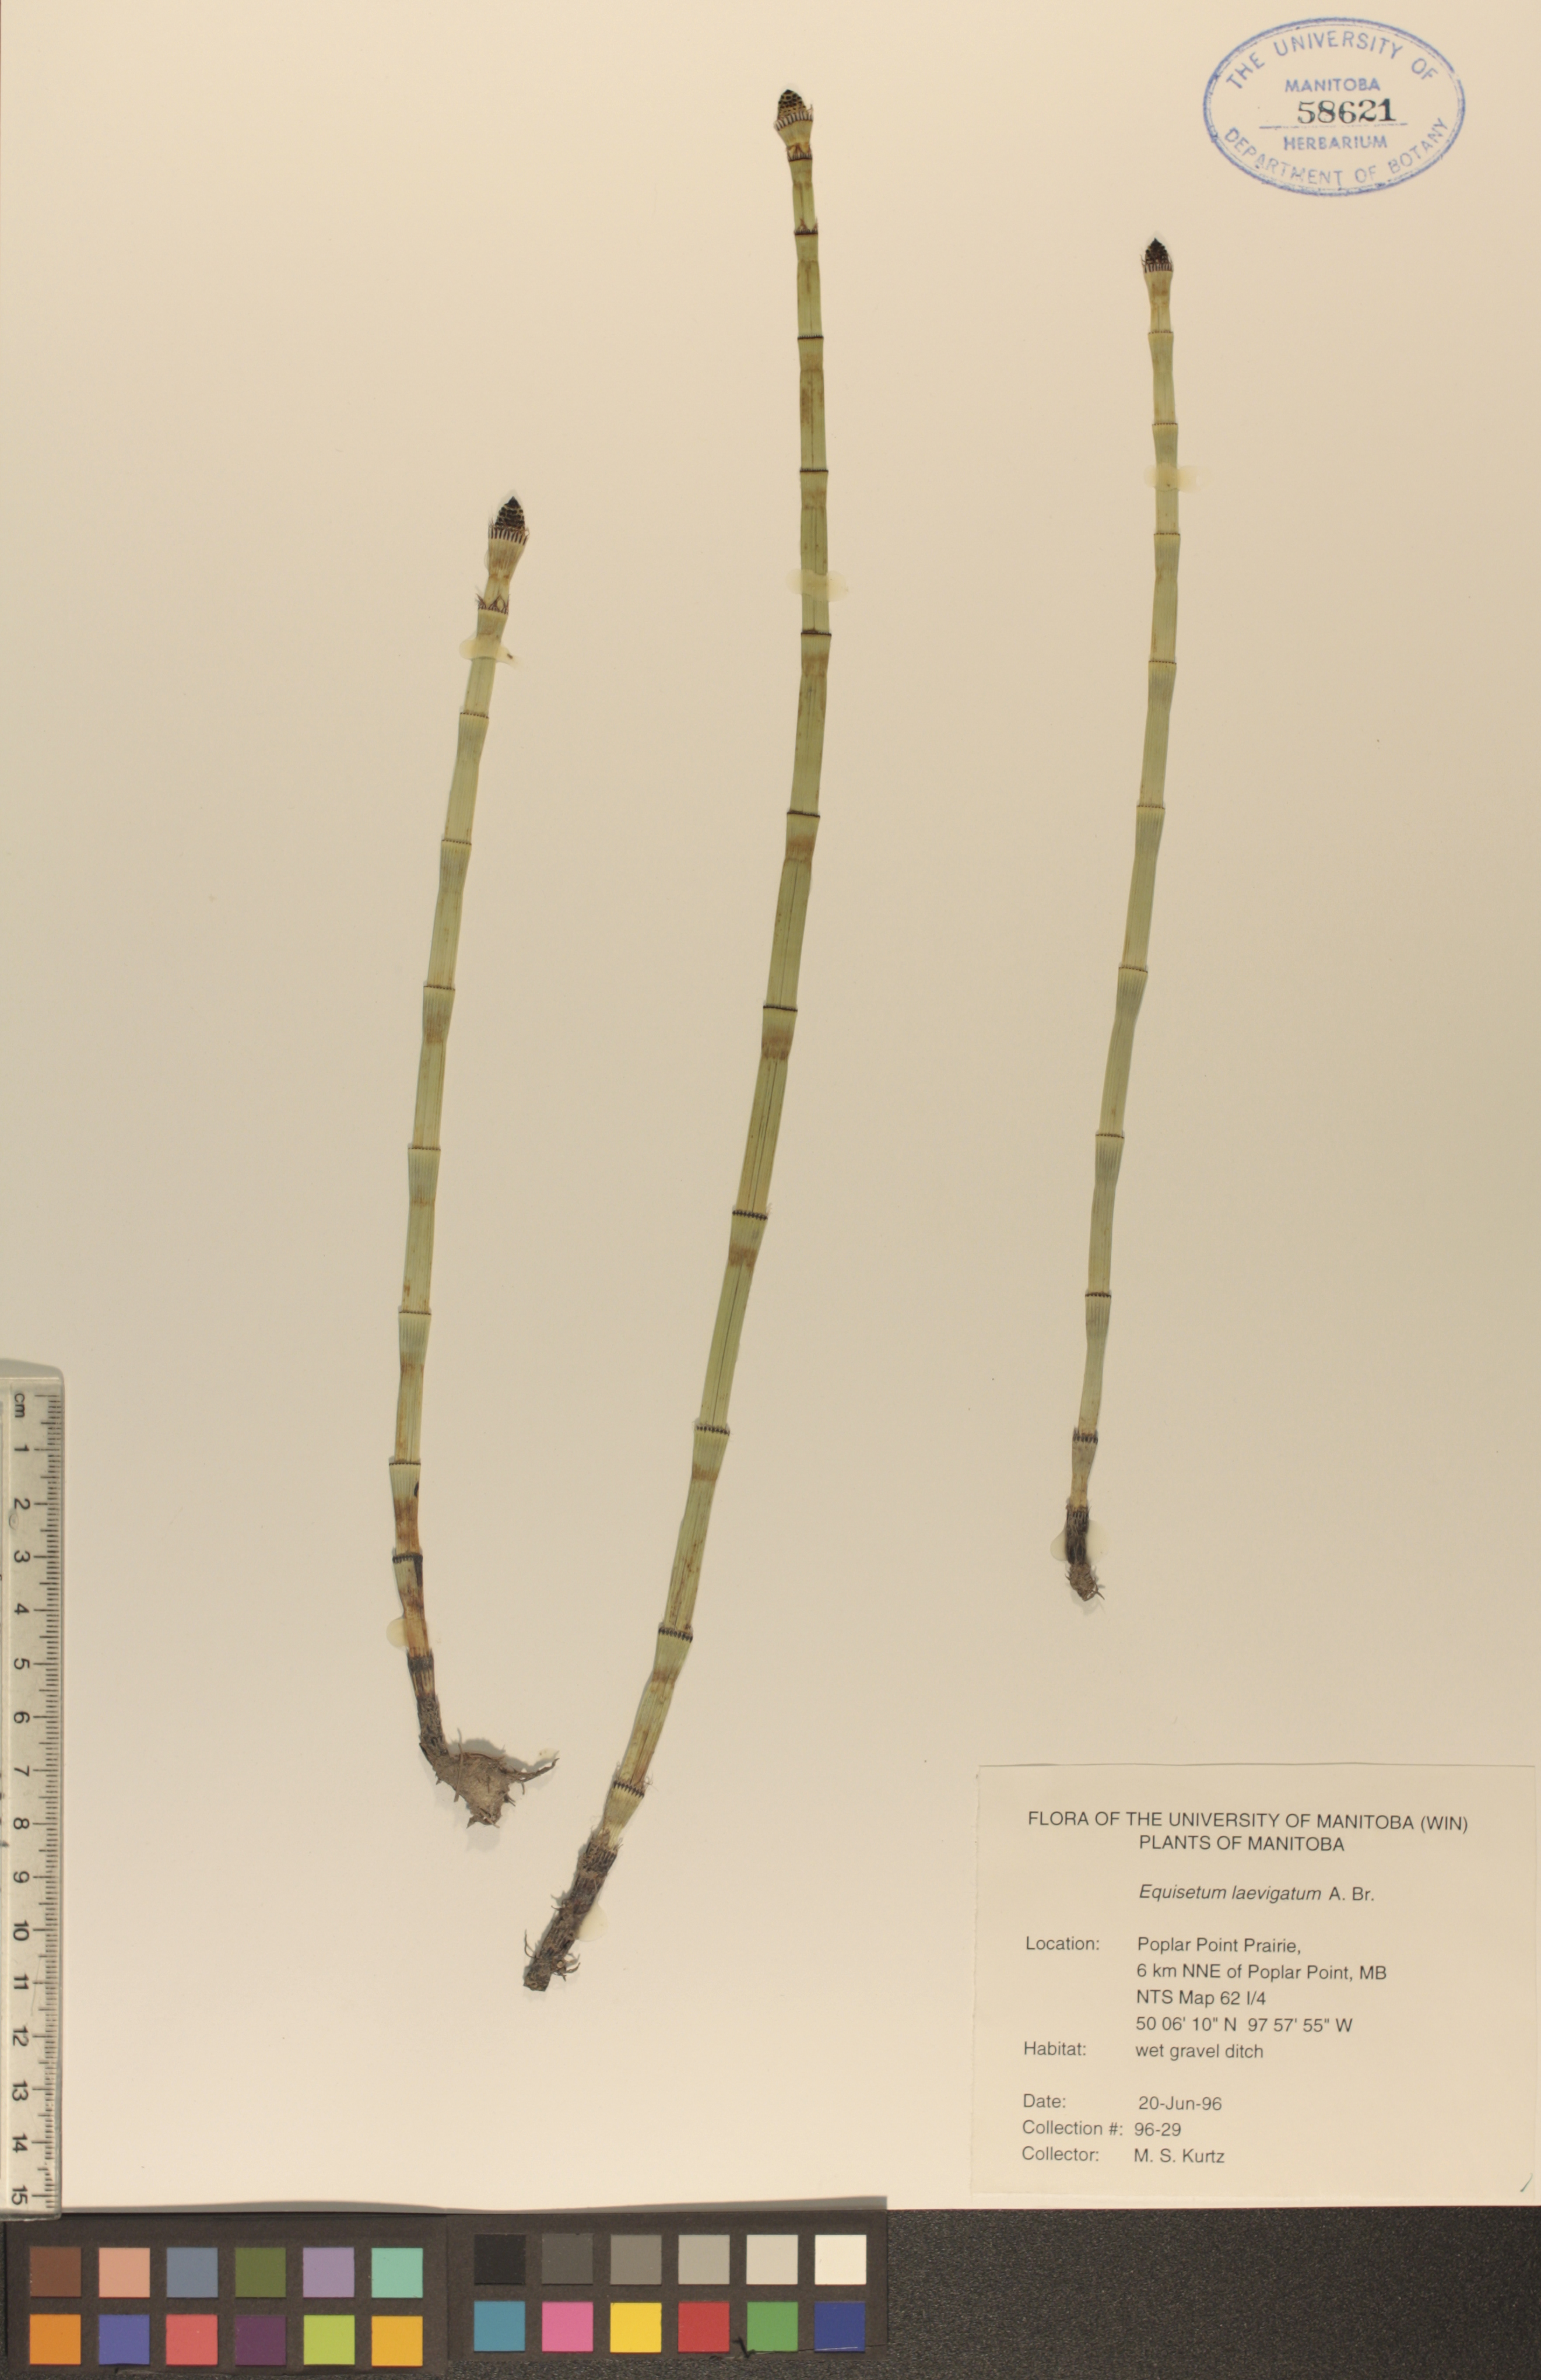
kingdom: Plantae
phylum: Tracheophyta
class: Polypodiopsida
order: Equisetales
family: Equisetaceae
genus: Equisetum
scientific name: Equisetum laevigatum
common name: Smooth scouring-rush
